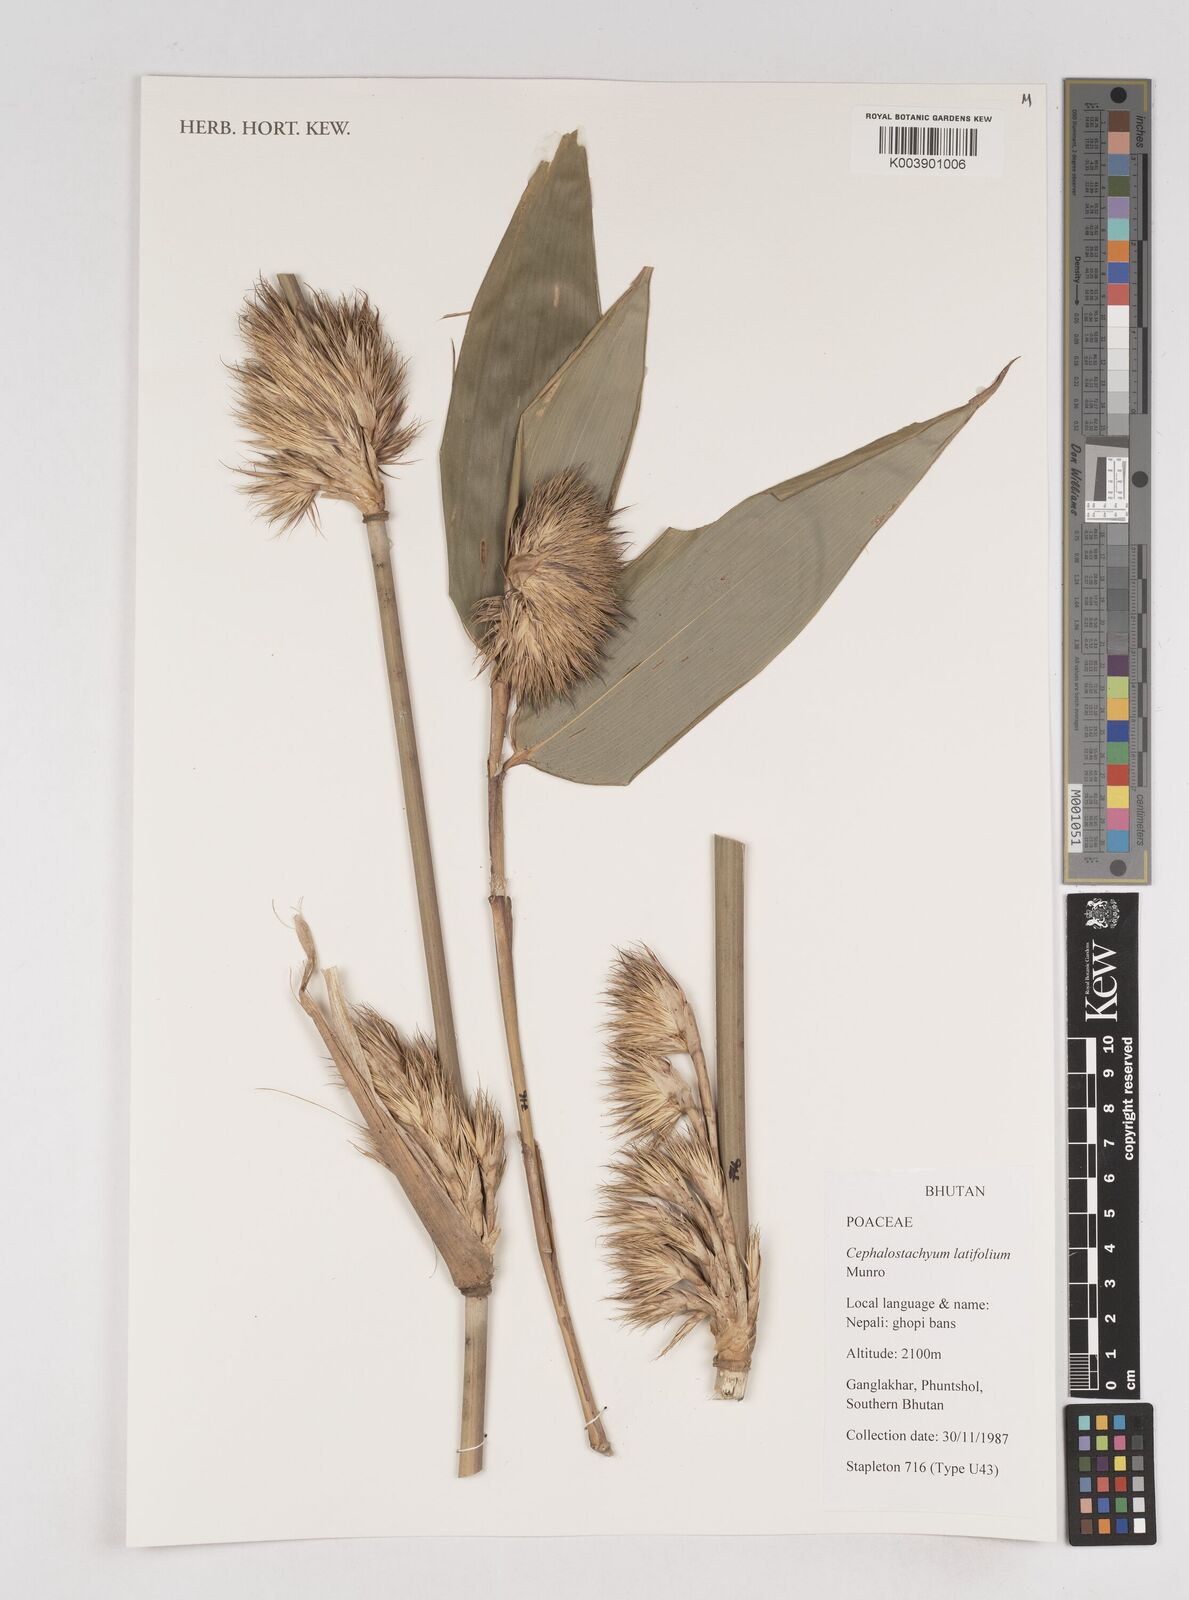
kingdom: Plantae
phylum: Tracheophyta
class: Liliopsida
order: Poales
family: Poaceae
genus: Cephalostachyum
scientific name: Cephalostachyum latifolium
